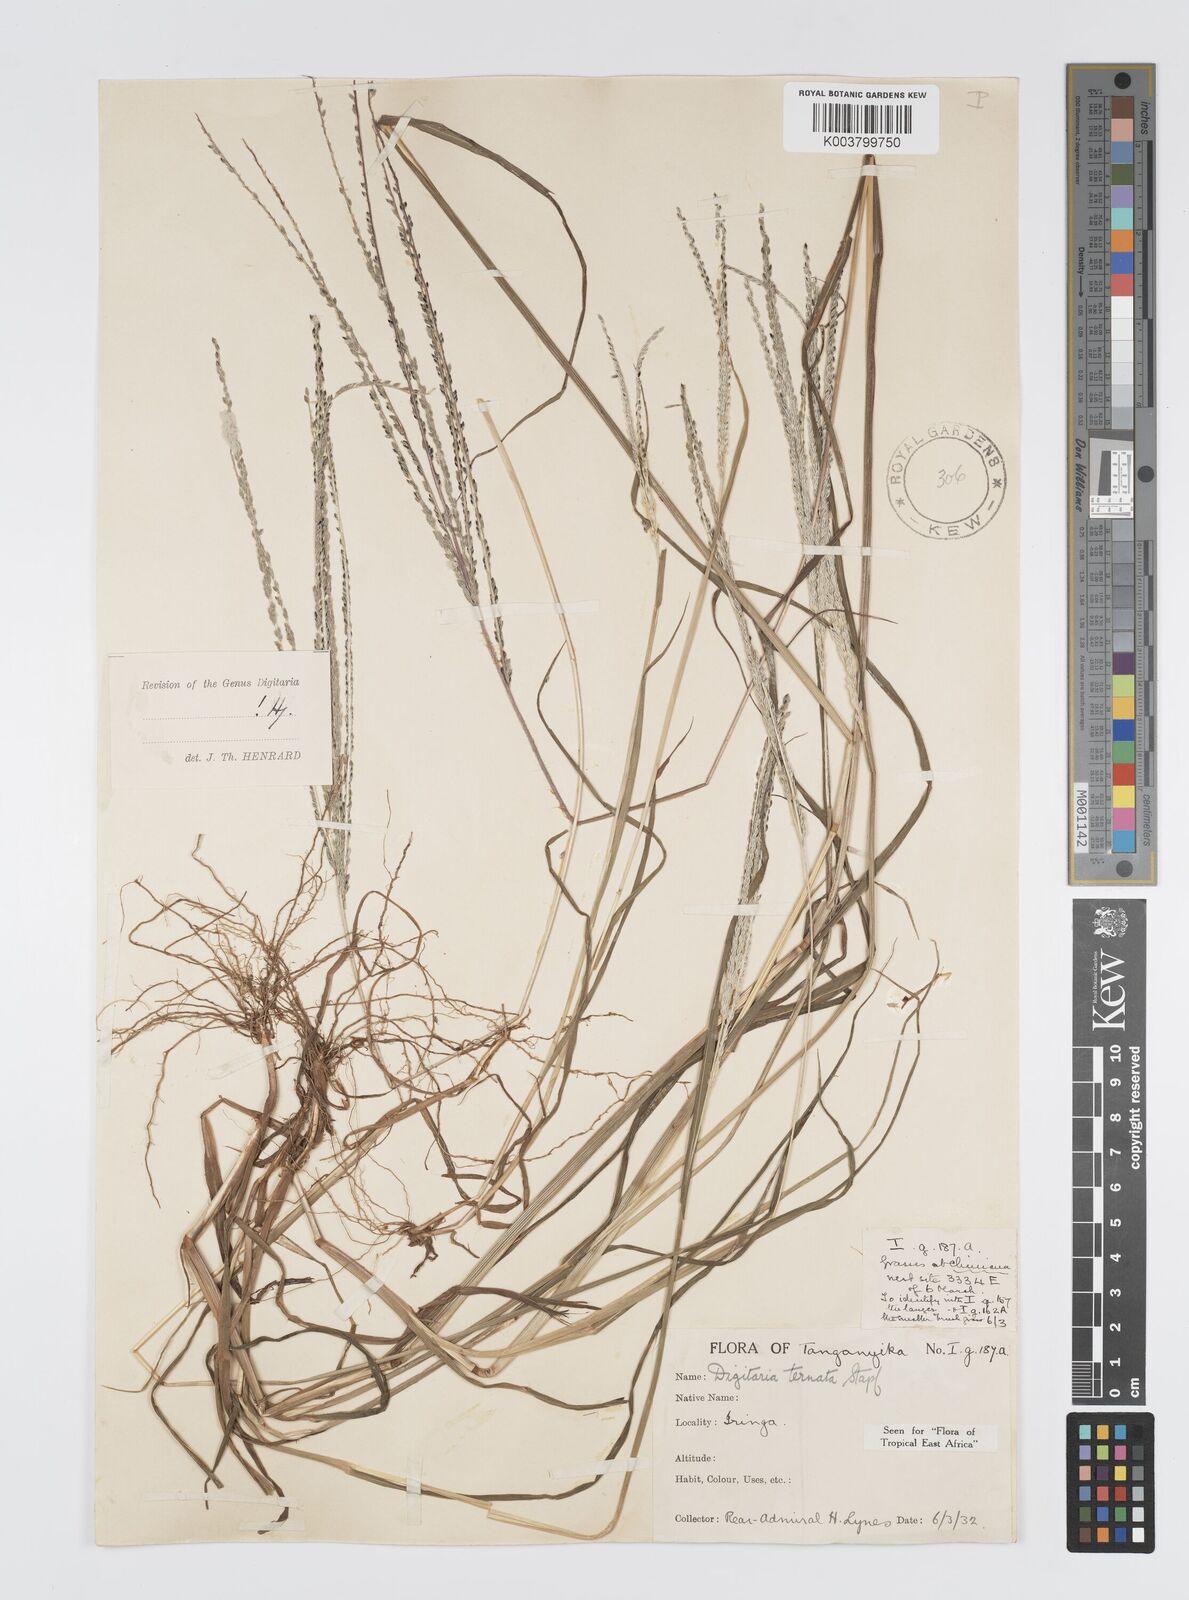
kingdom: Plantae
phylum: Tracheophyta
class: Liliopsida
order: Poales
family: Poaceae
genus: Digitaria
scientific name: Digitaria ternata
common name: Blackseed crabgrass
